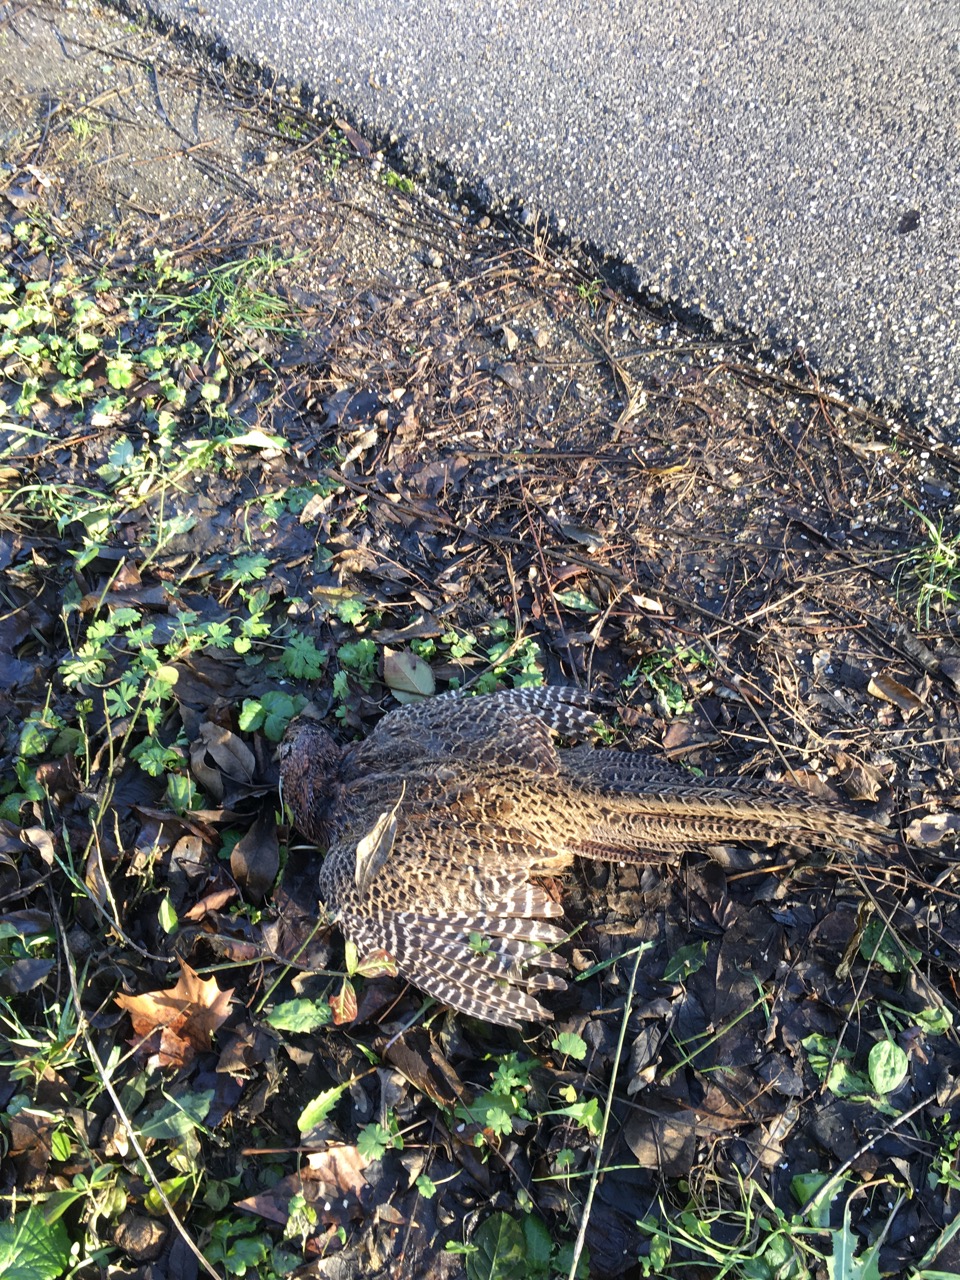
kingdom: Animalia
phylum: Chordata
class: Aves
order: Galliformes
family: Phasianidae
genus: Phasianus
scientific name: Phasianus colchicus
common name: Common pheasant
